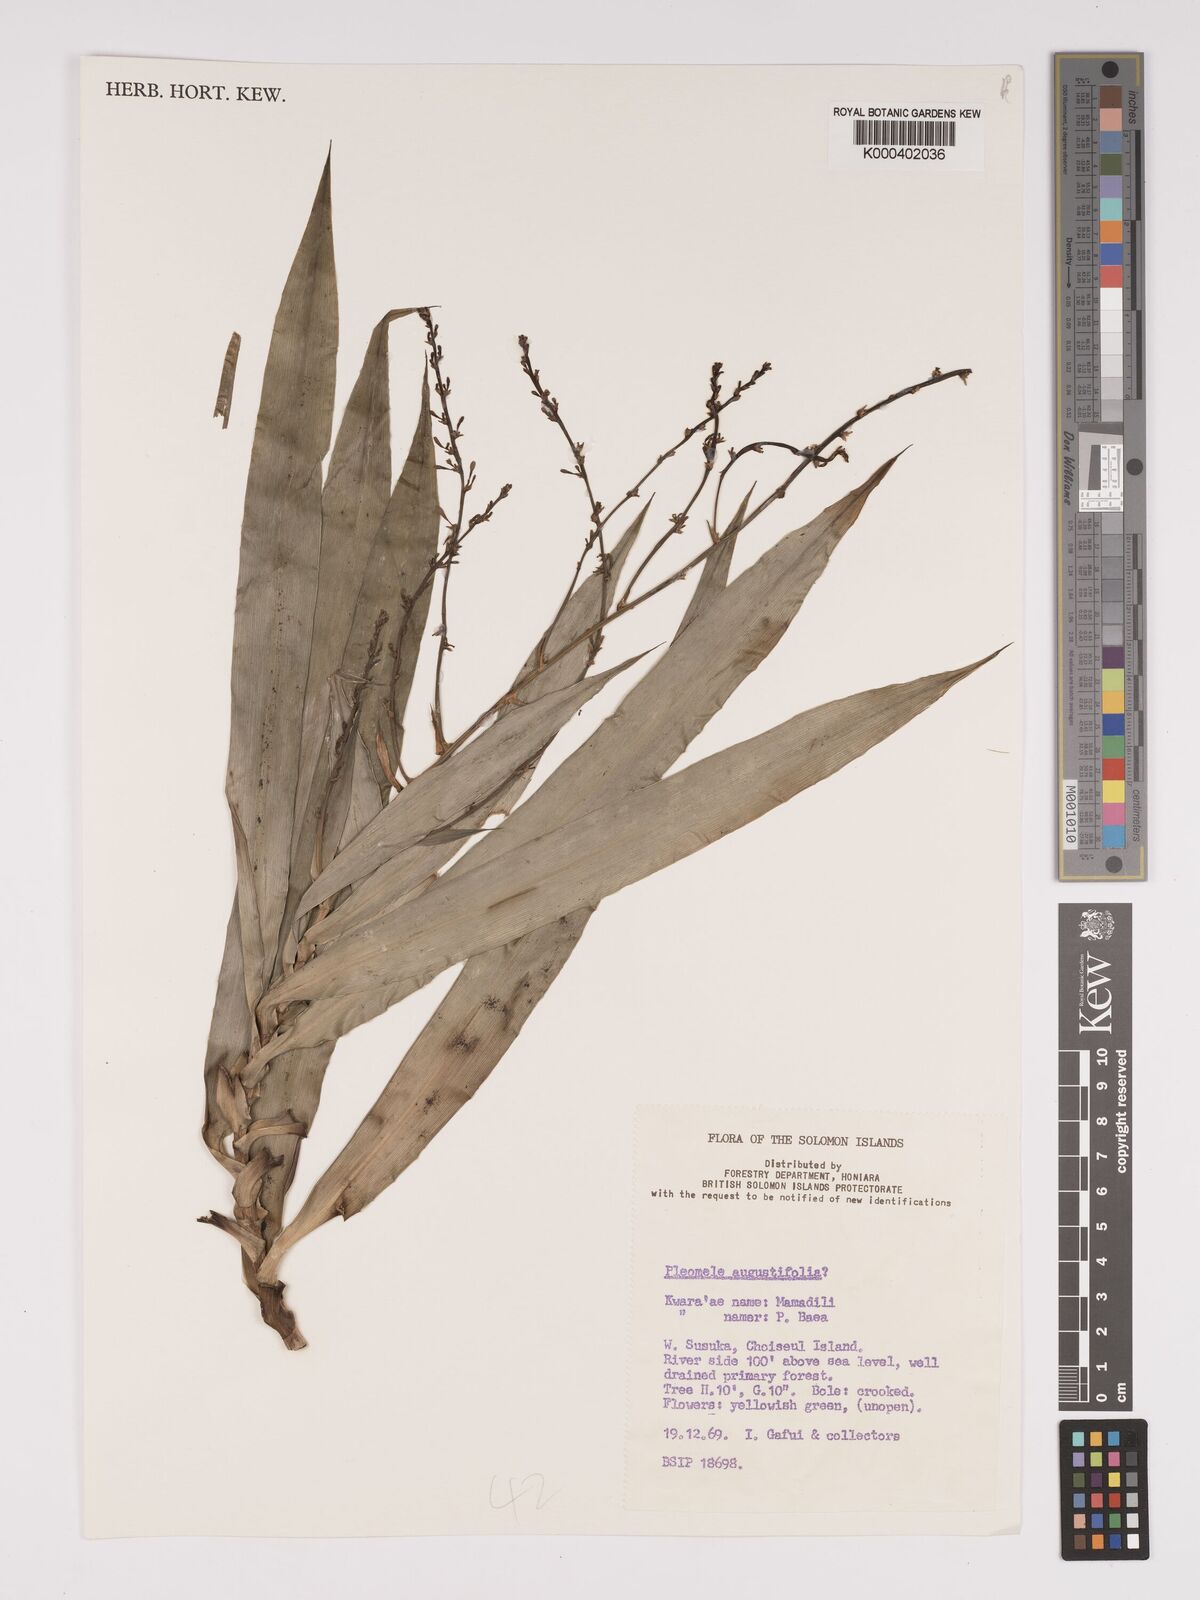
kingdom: Plantae
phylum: Tracheophyta
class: Liliopsida
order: Asparagales
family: Asparagaceae
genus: Dracaena
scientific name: Dracaena angustifolia
